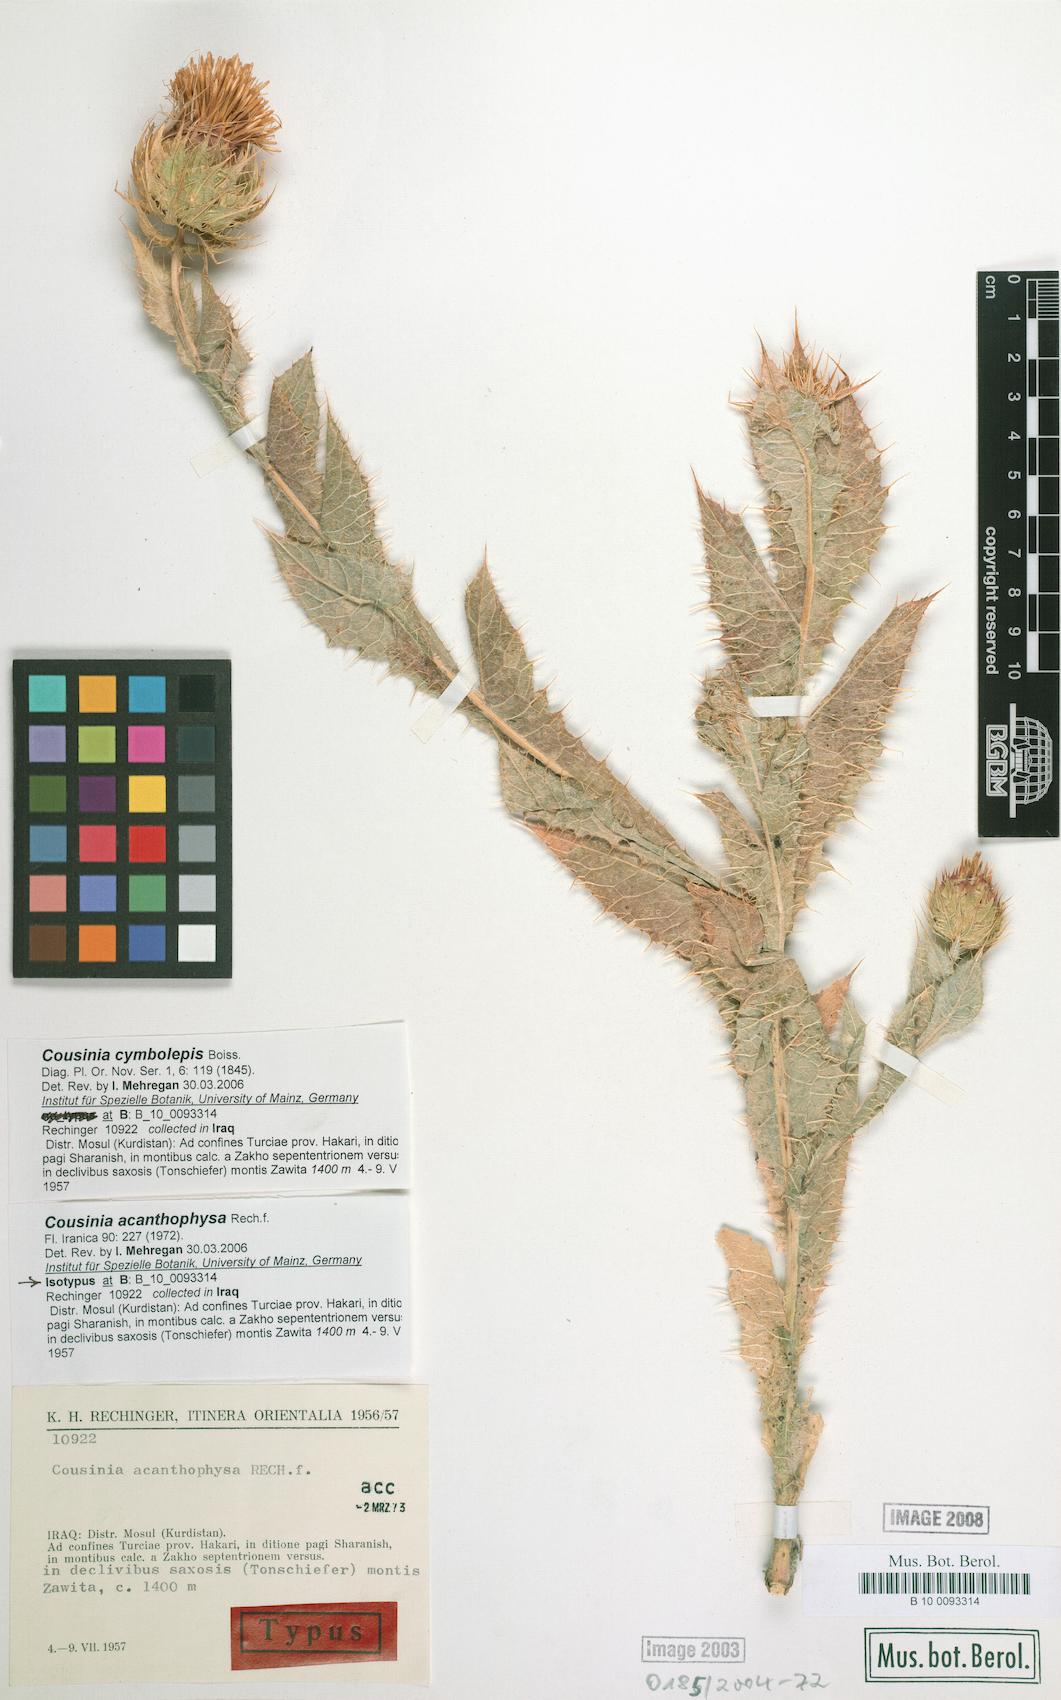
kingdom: Plantae
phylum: Tracheophyta
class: Magnoliopsida
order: Asterales
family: Asteraceae
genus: Cousinia
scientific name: Cousinia odontolepis
